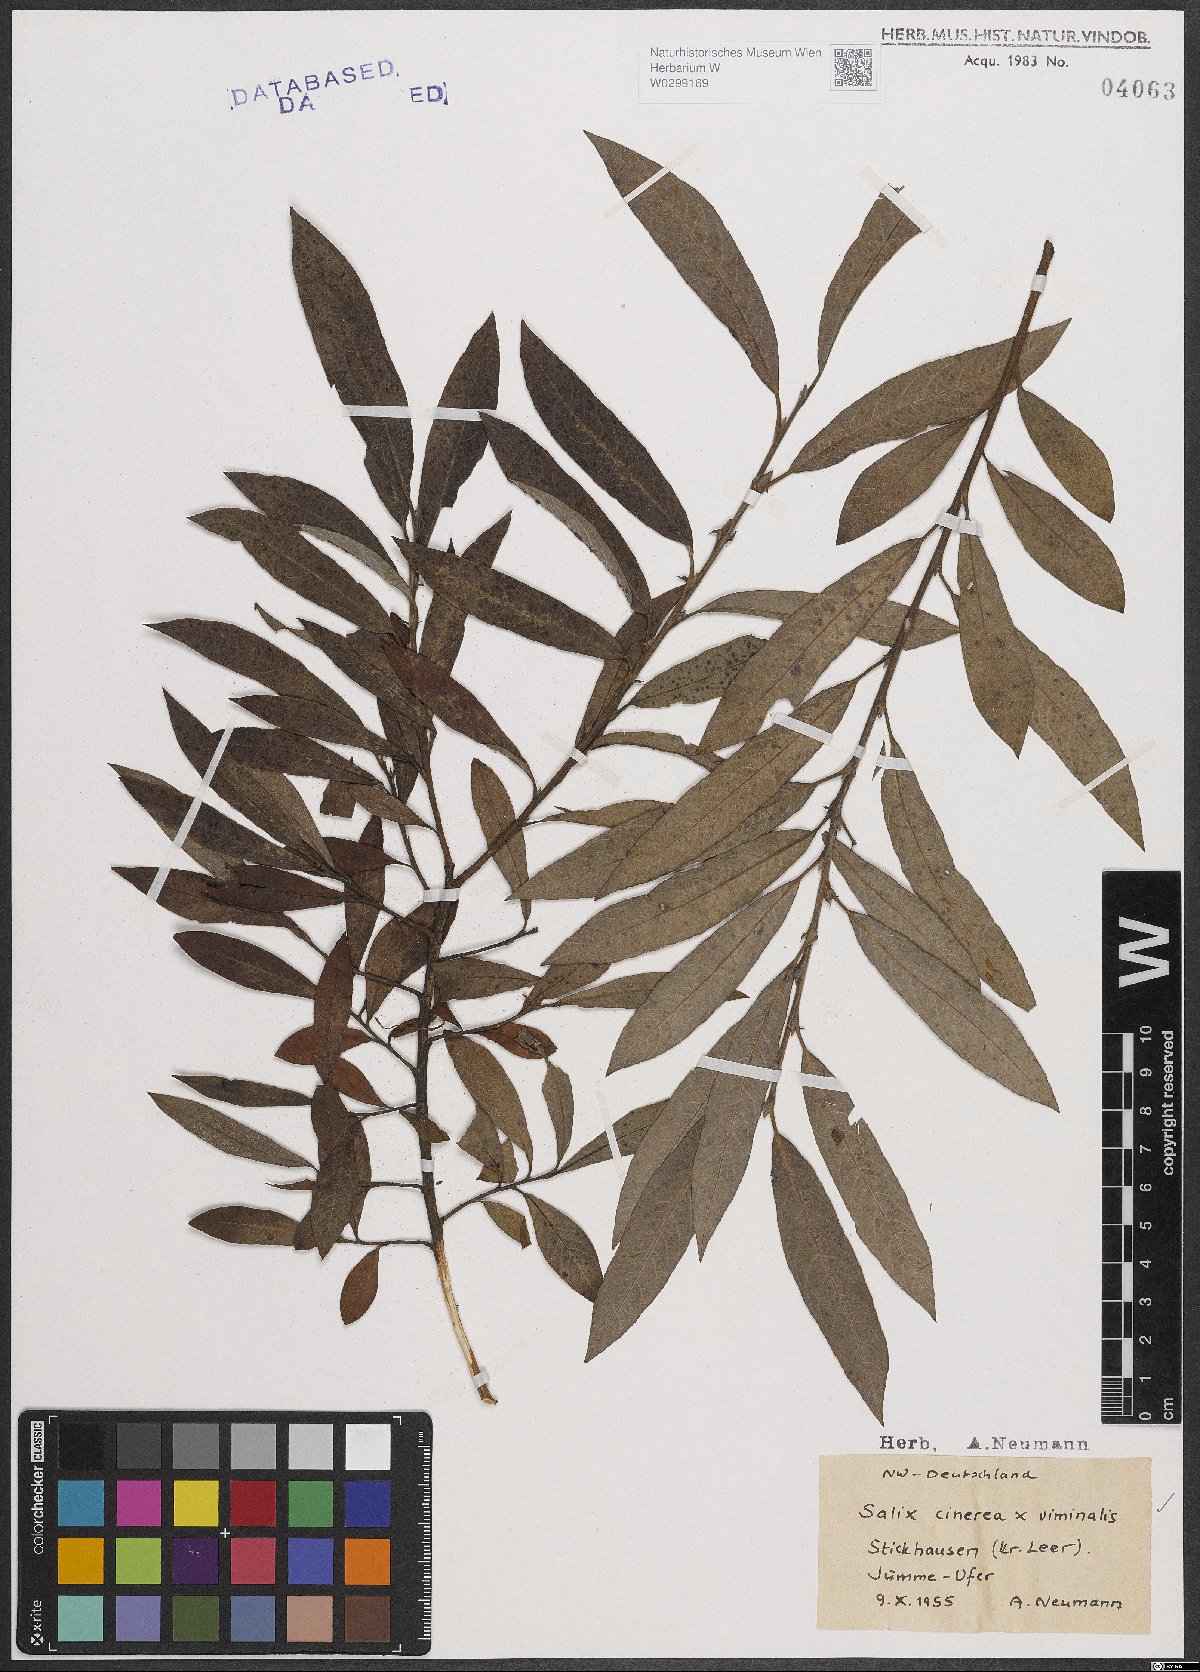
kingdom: Plantae
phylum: Tracheophyta
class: Magnoliopsida
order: Malpighiales
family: Salicaceae
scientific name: Salicaceae
